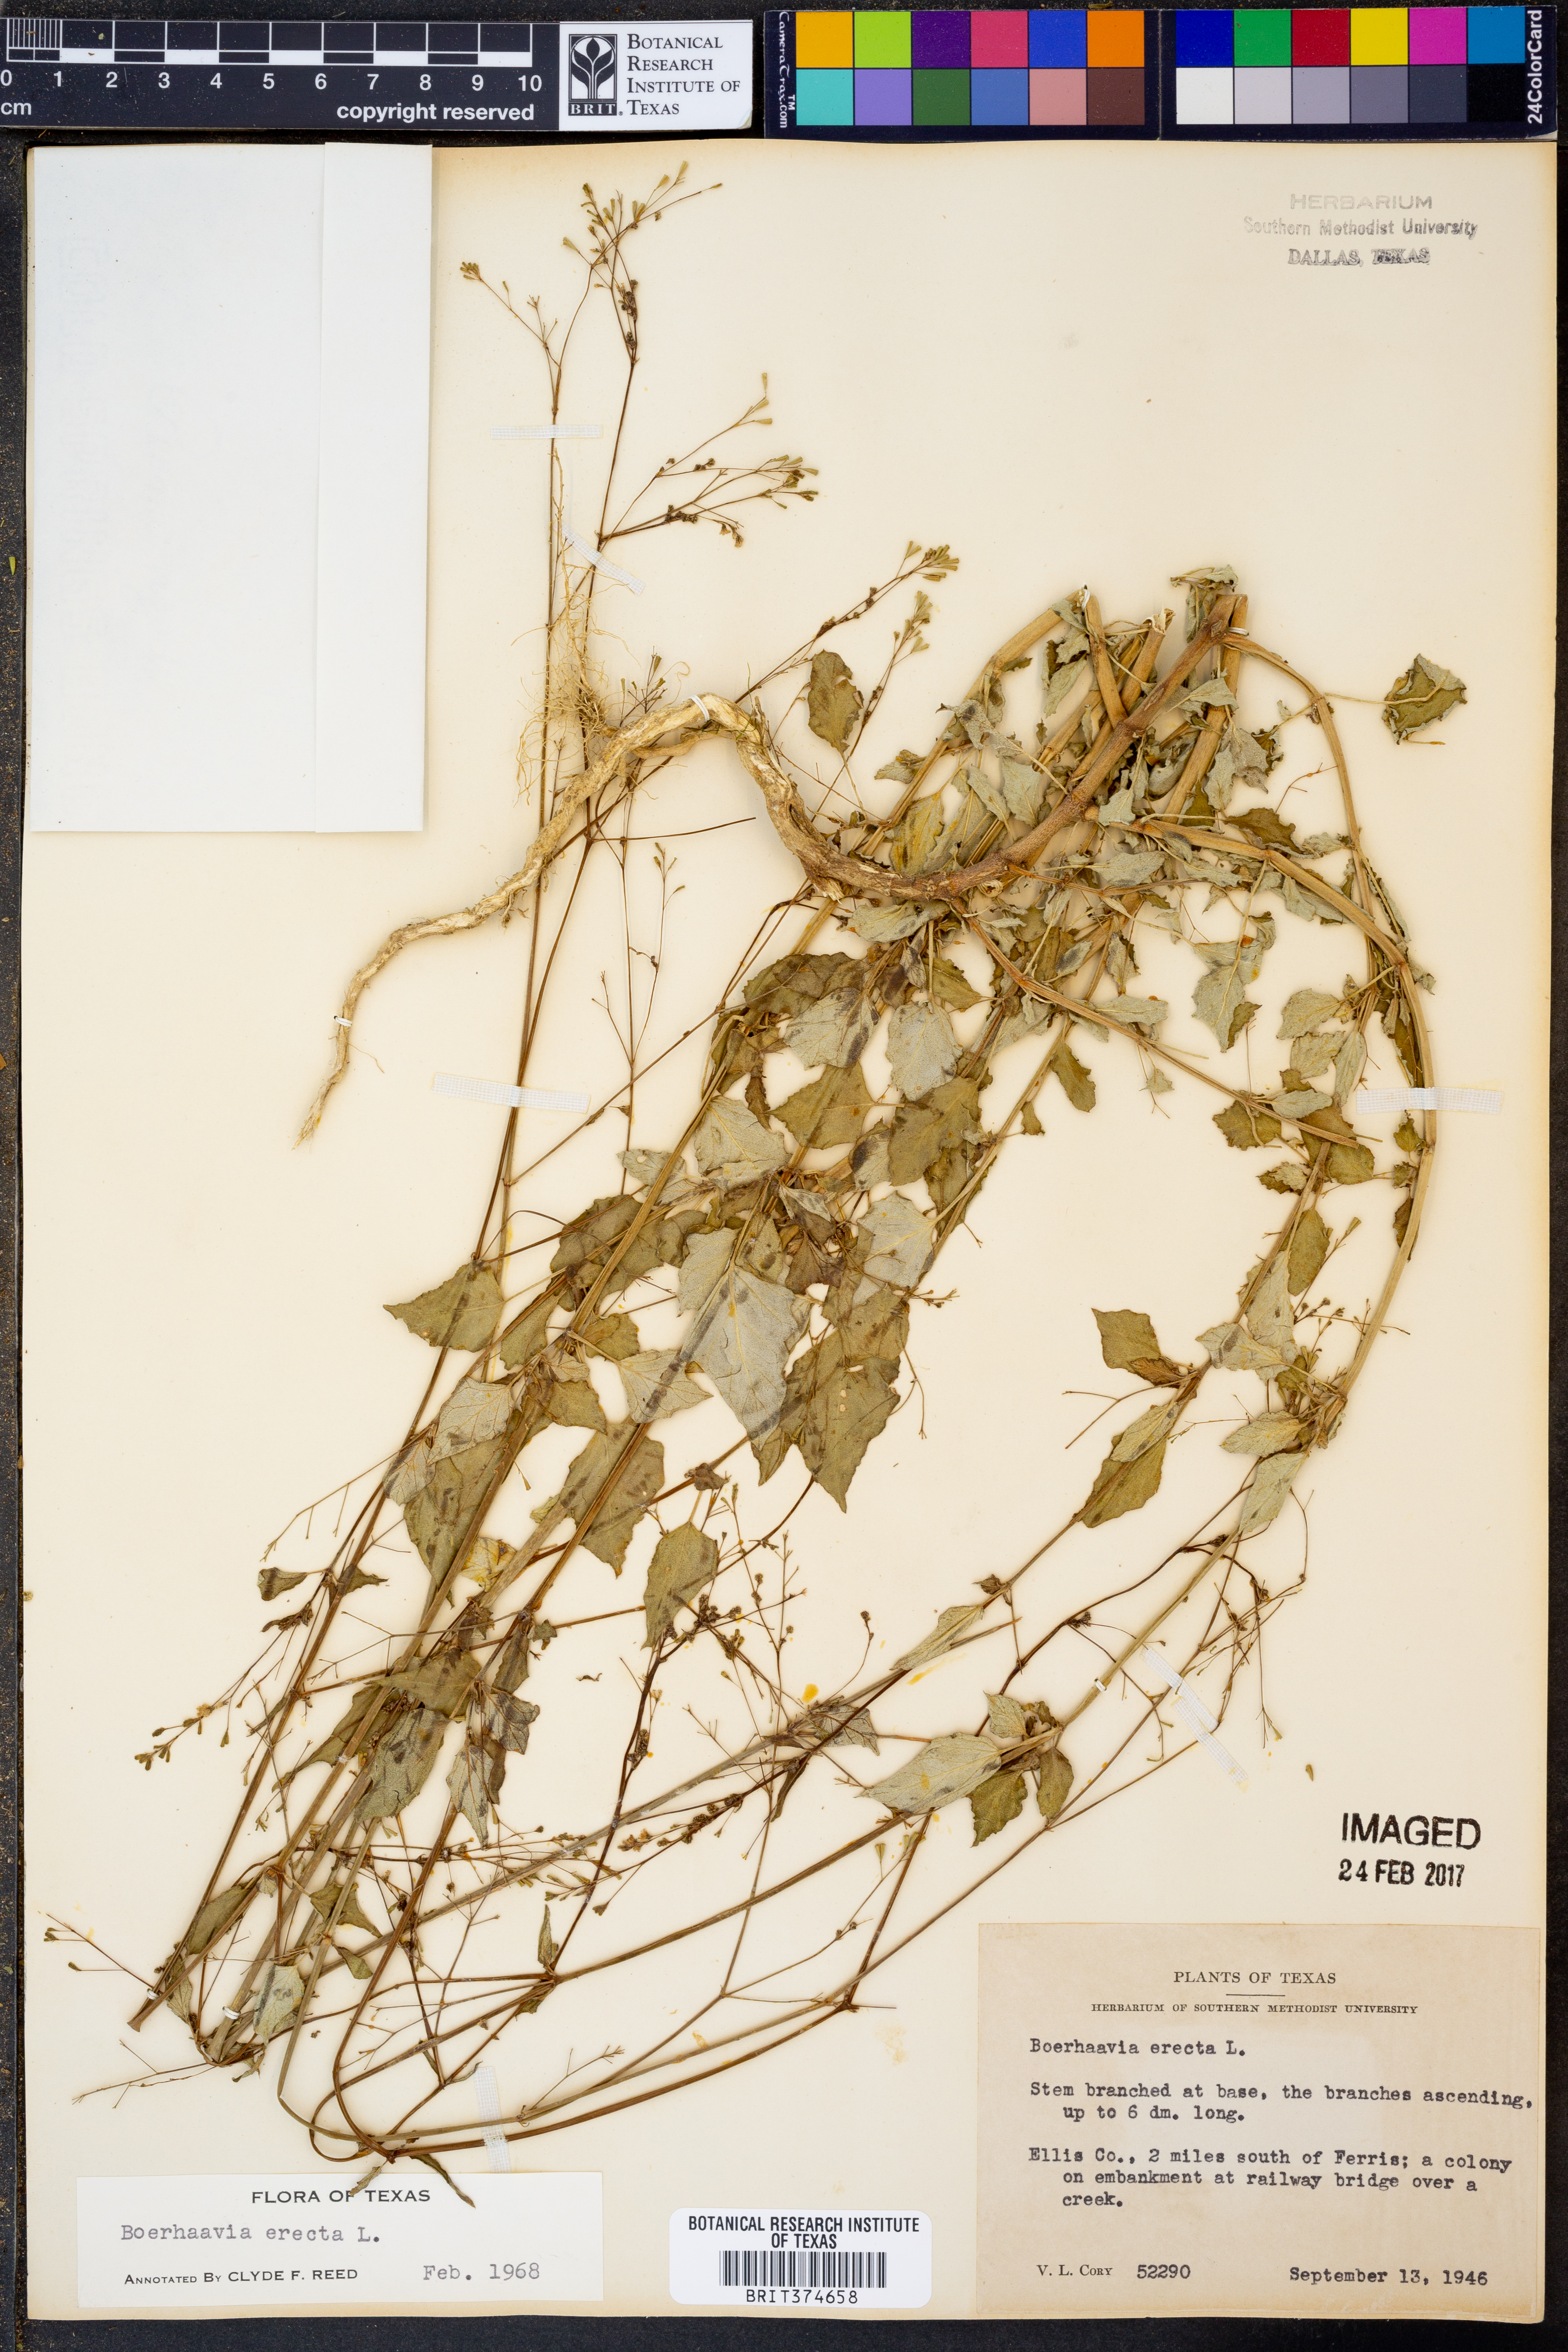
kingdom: Plantae
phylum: Tracheophyta
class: Magnoliopsida
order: Caryophyllales
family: Nyctaginaceae
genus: Boerhavia
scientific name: Boerhavia erecta
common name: Erect spiderling
